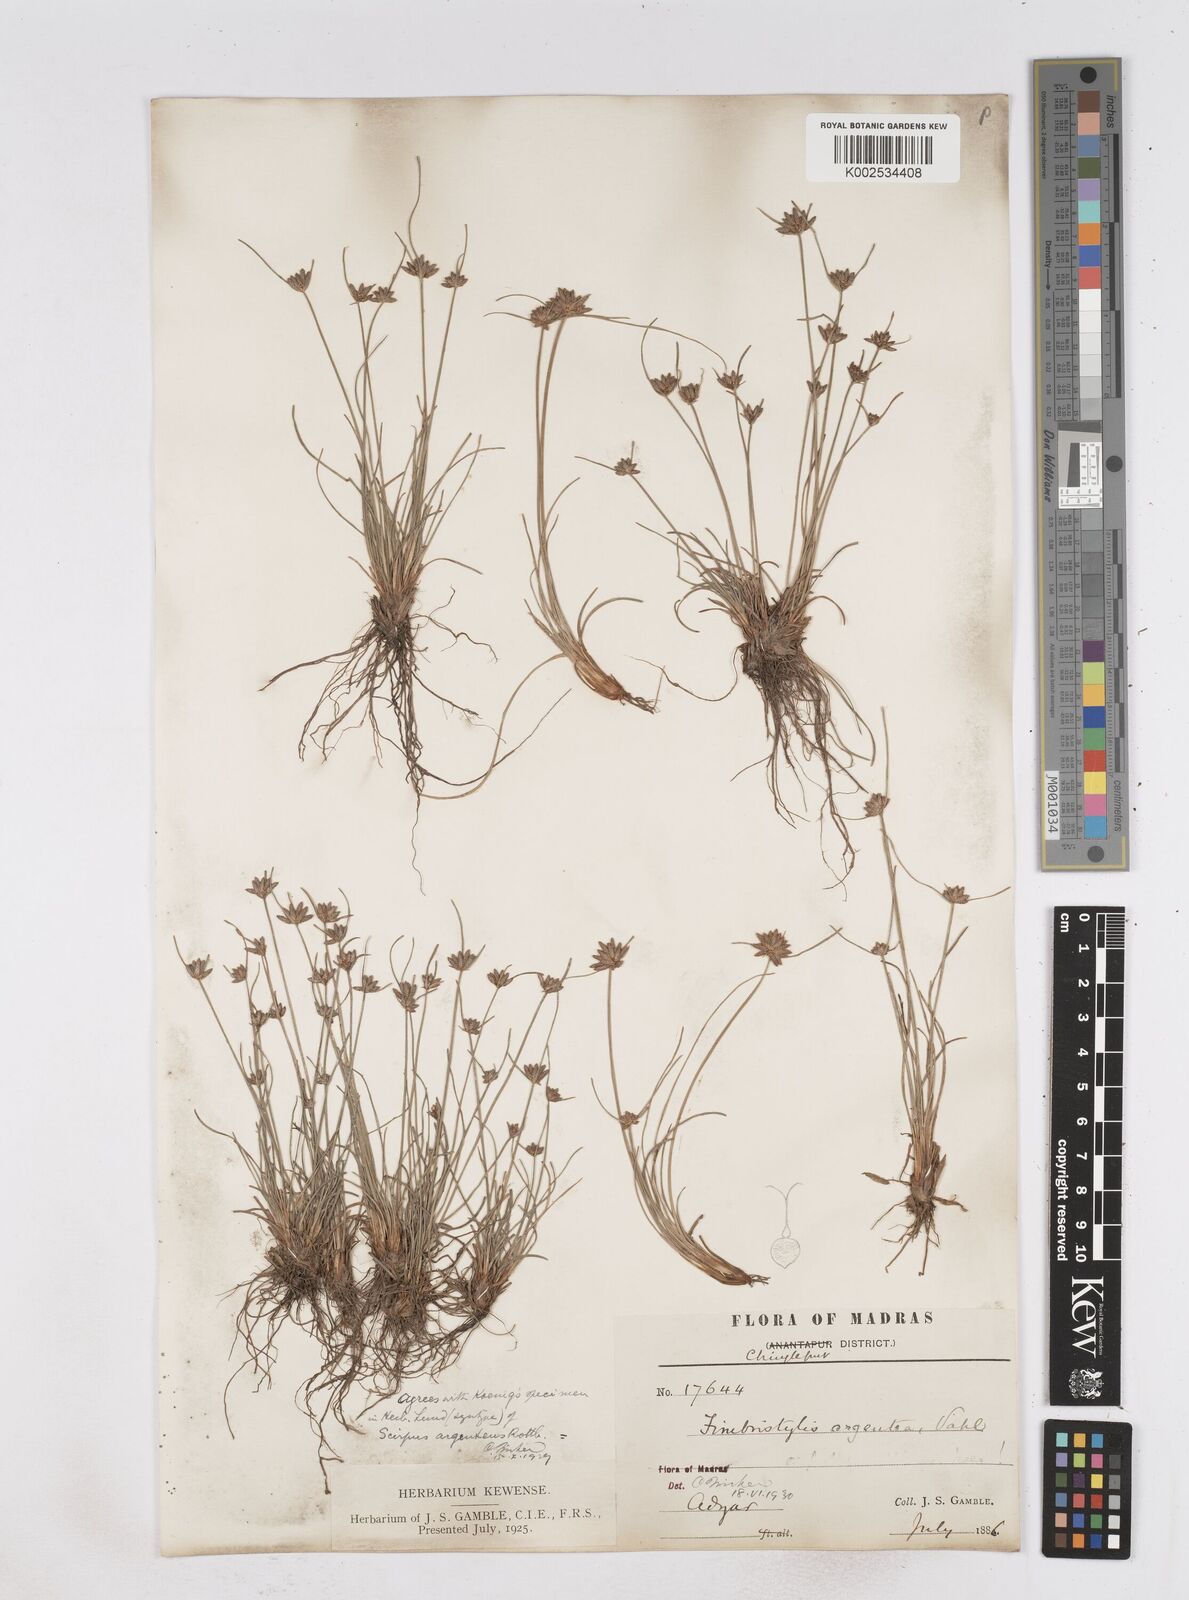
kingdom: Plantae
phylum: Tracheophyta
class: Liliopsida
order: Poales
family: Cyperaceae
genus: Fimbristylis
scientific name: Fimbristylis argentea
